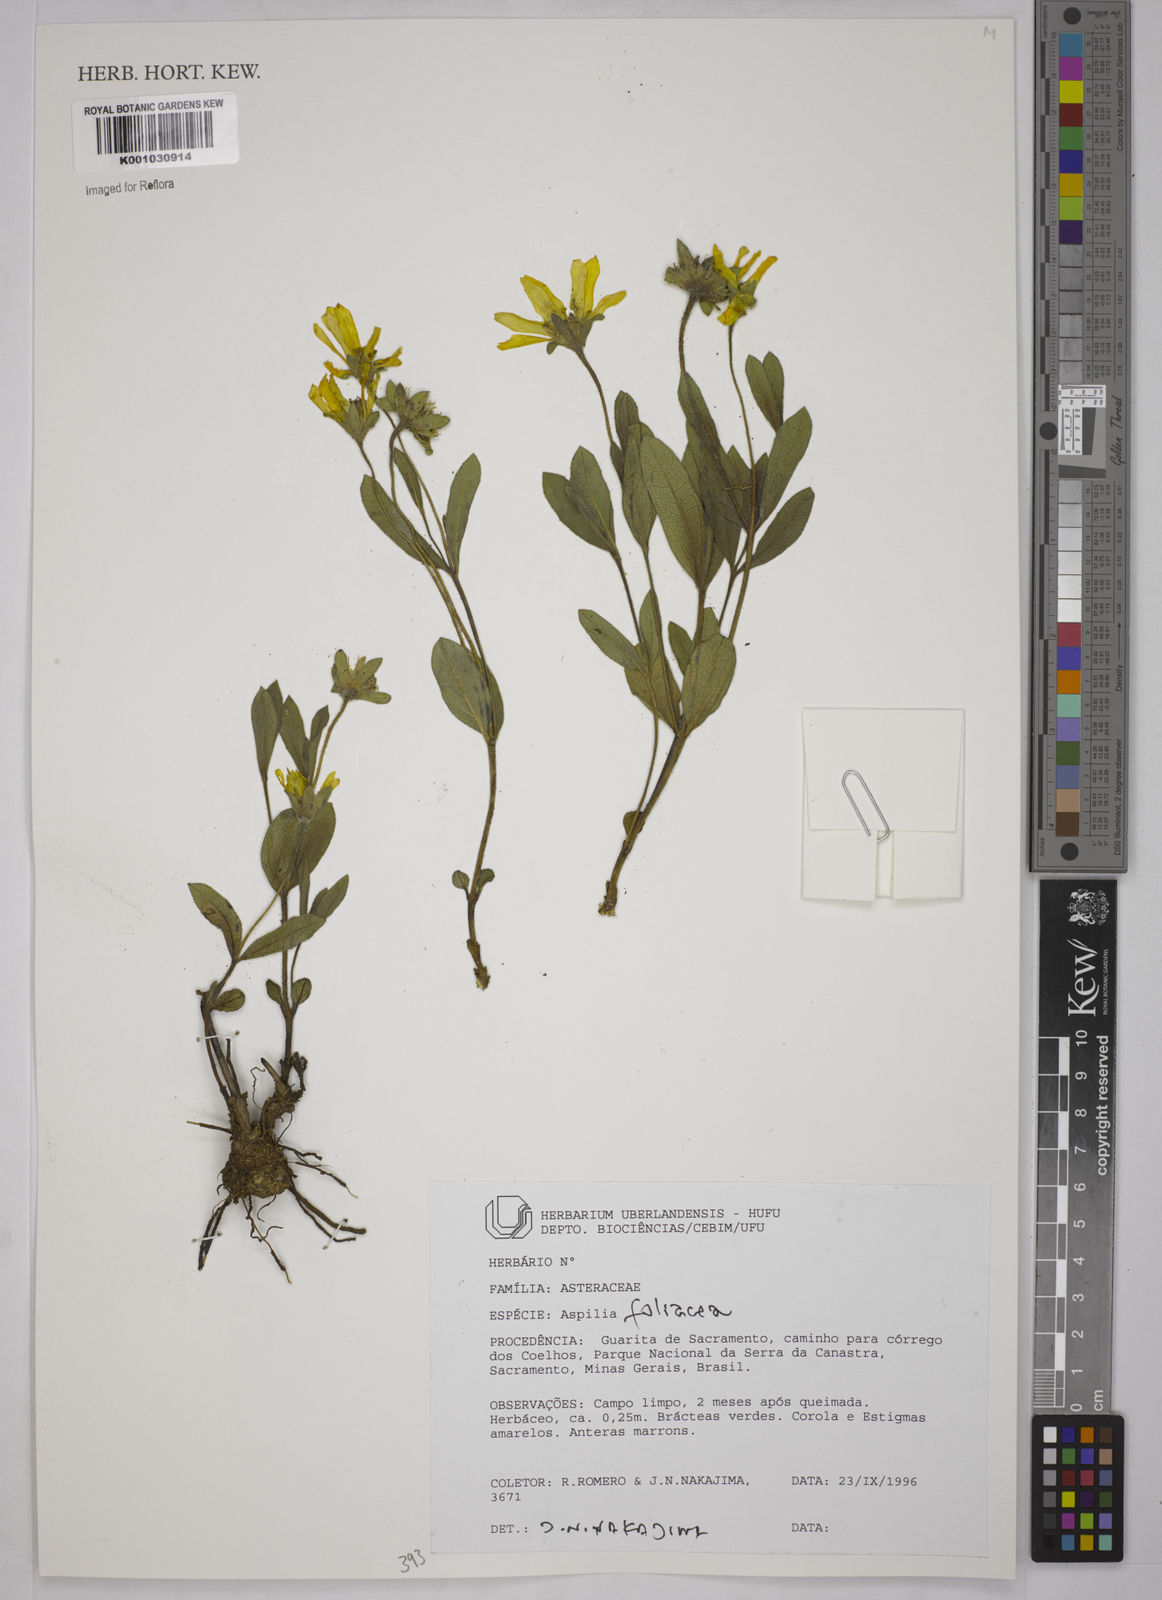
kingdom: Plantae
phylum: Tracheophyta
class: Magnoliopsida
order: Asterales
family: Asteraceae
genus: Wedelia
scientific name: Wedelia foliacea
